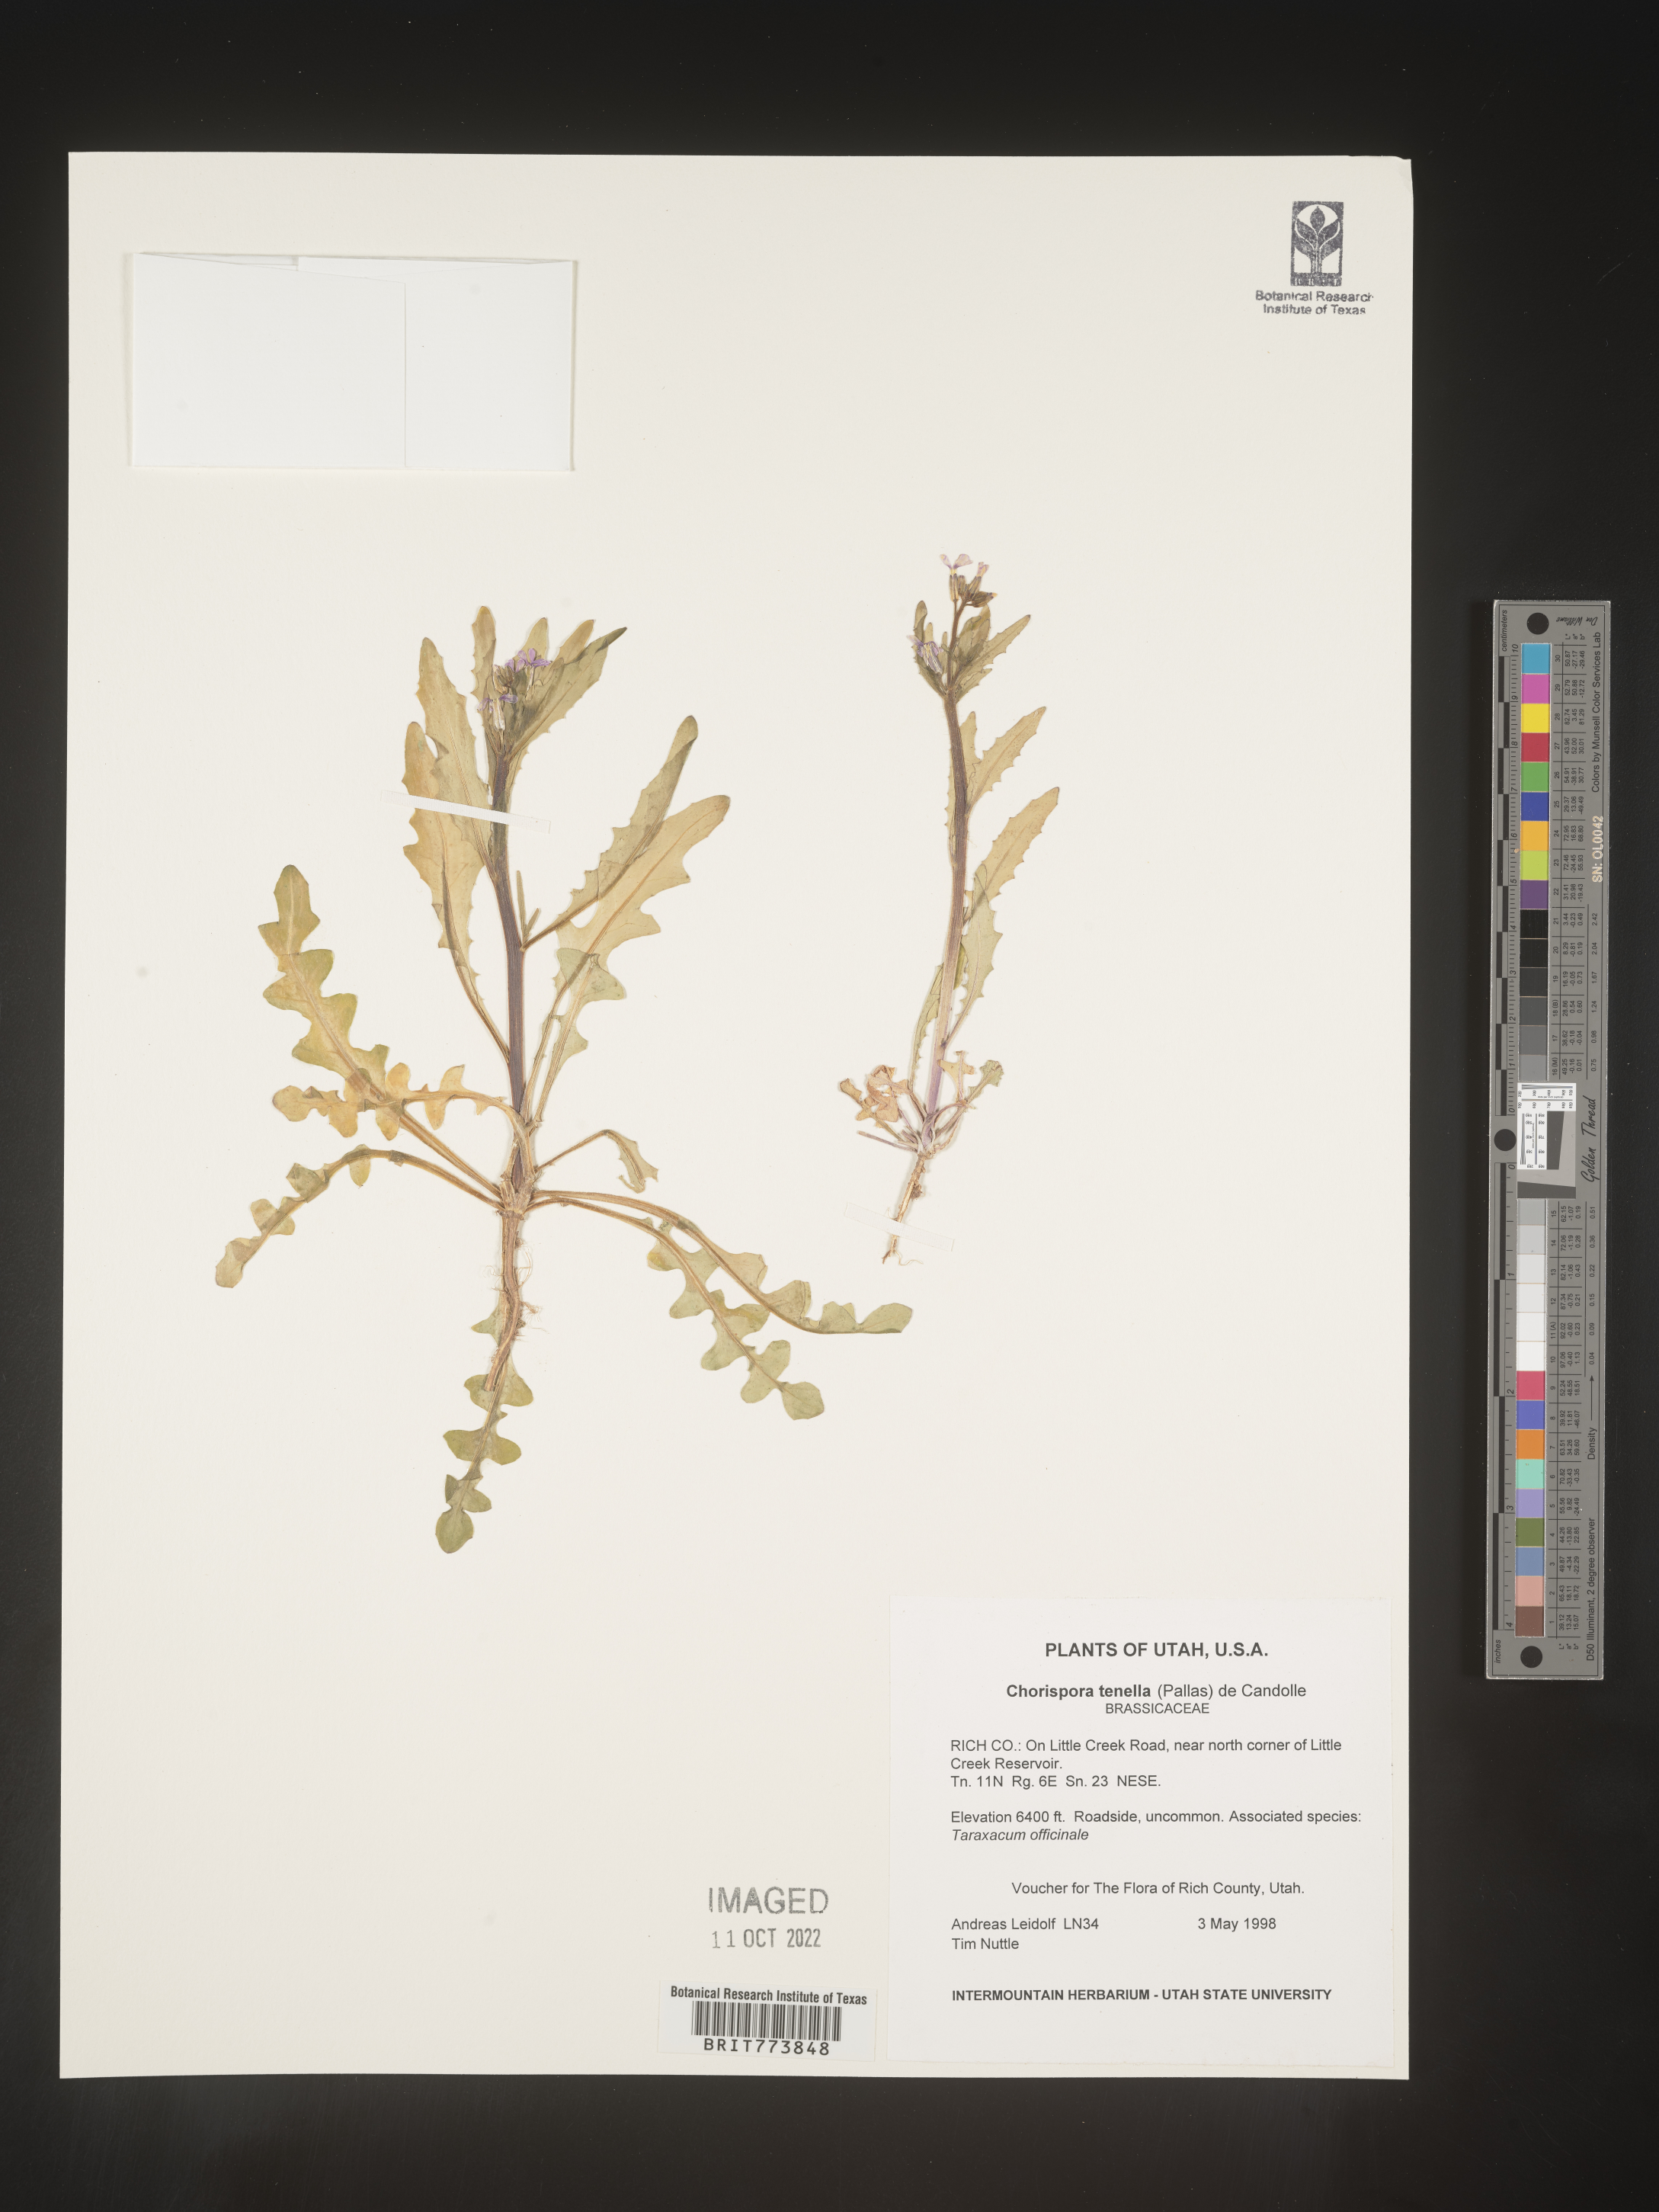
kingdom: Plantae
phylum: Tracheophyta
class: Magnoliopsida
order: Brassicales
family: Brassicaceae
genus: Chorispora
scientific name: Chorispora tenella
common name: Crossflower
